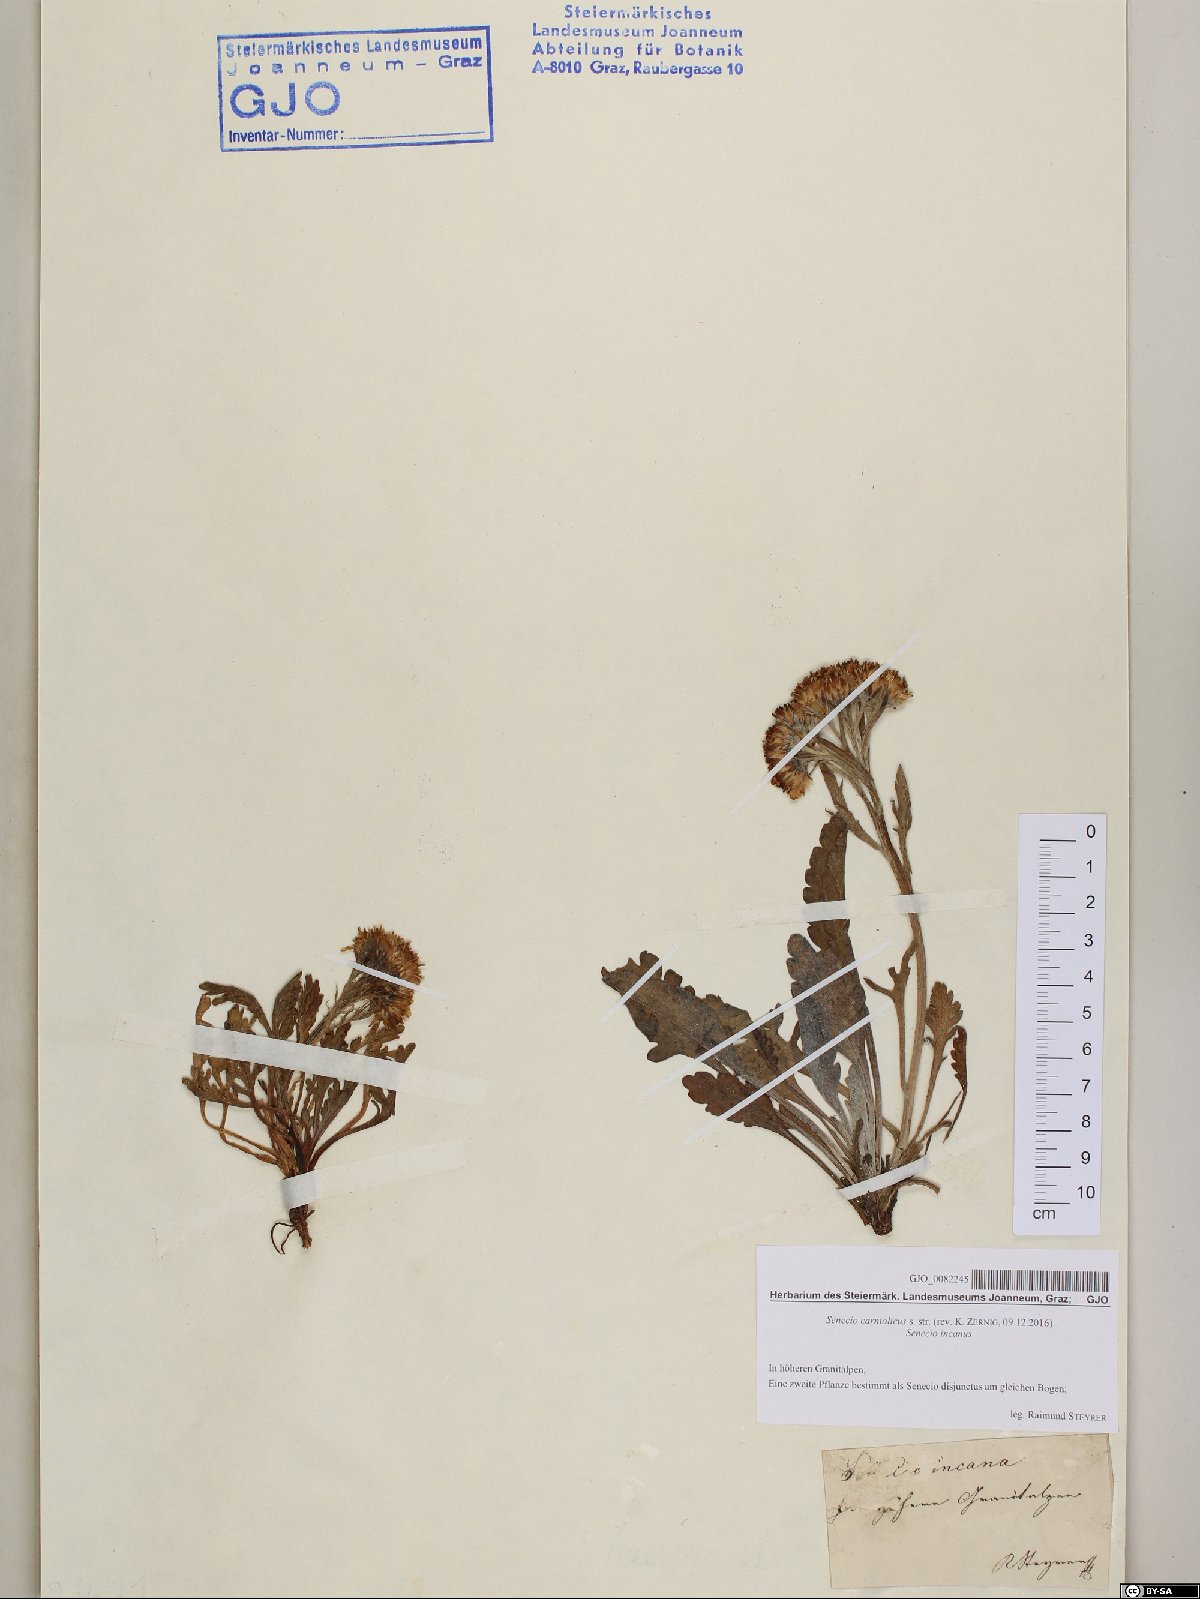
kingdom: Plantae
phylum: Tracheophyta
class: Magnoliopsida
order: Asterales
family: Asteraceae
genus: Jacobaea
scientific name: Jacobaea carniolica
